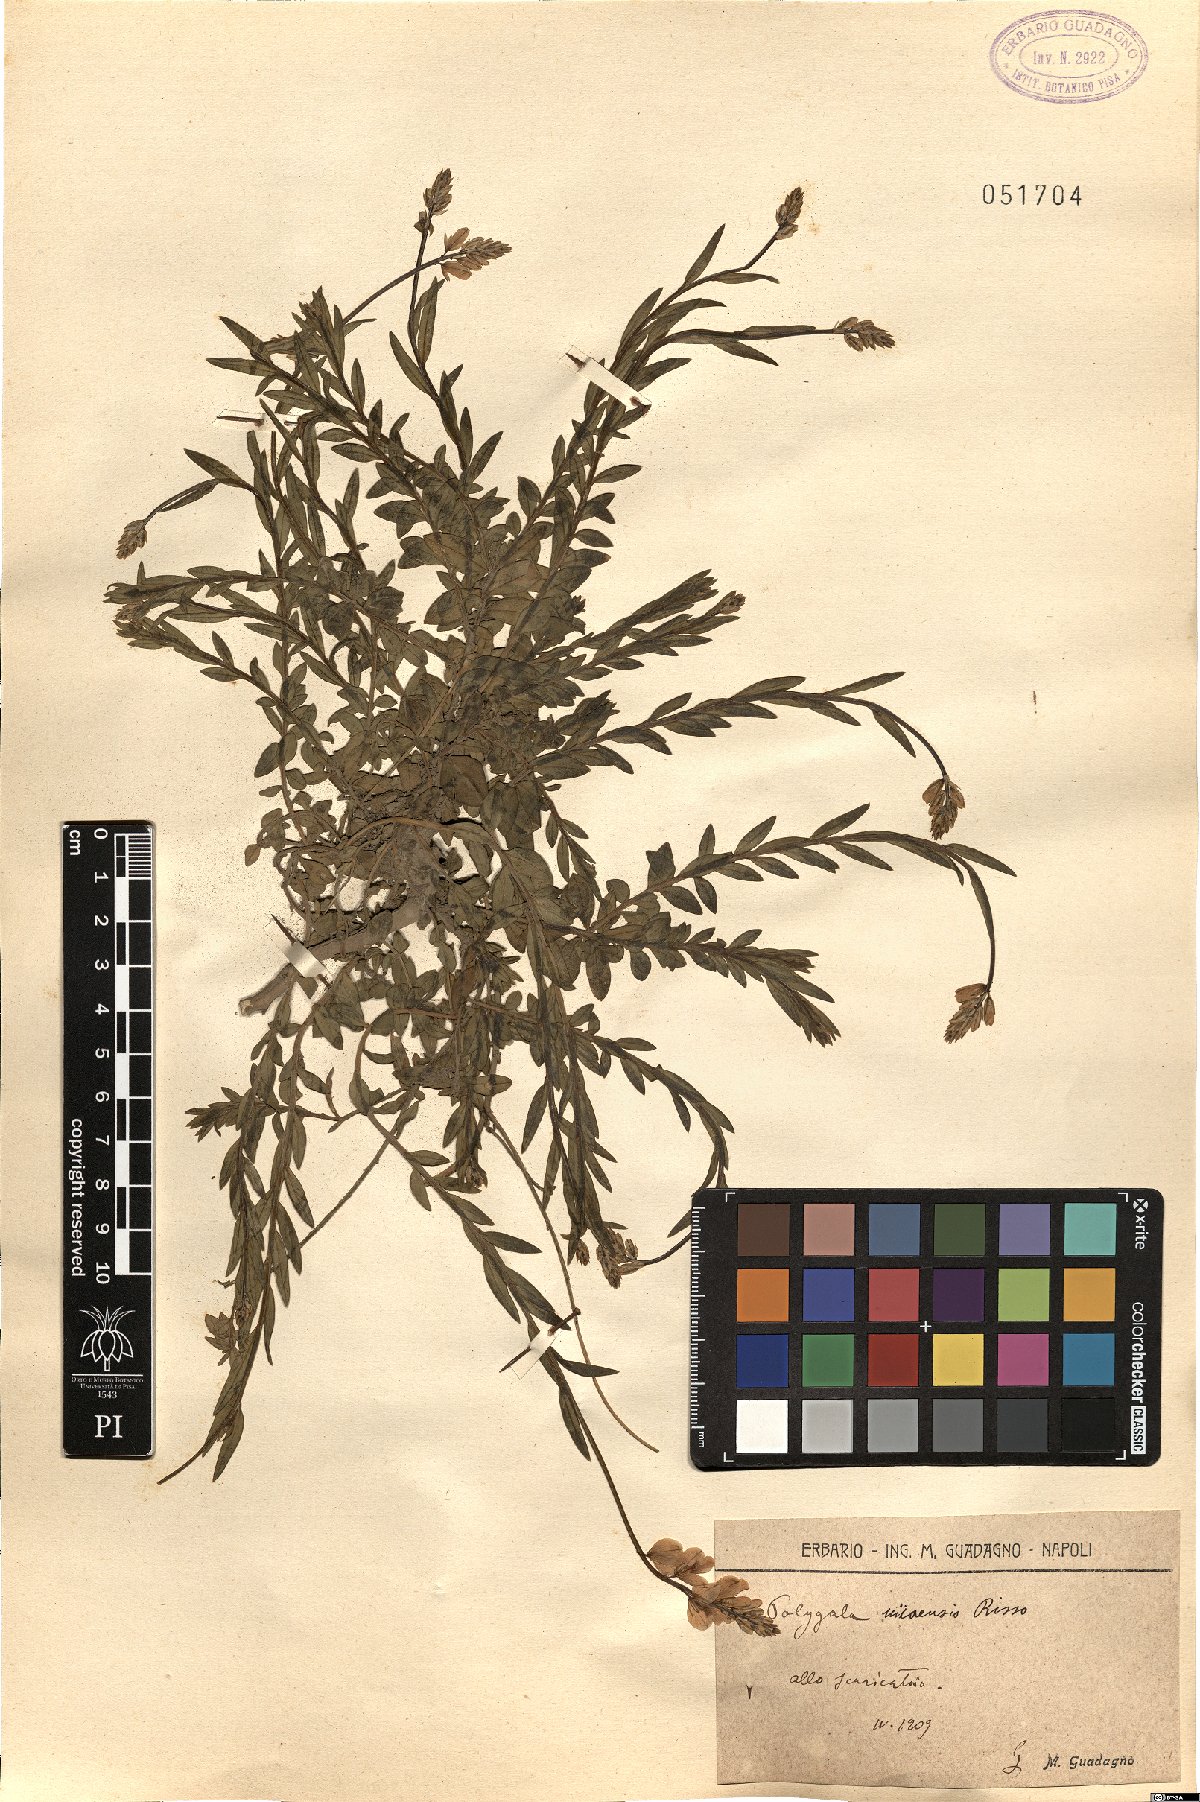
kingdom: Plantae
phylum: Tracheophyta
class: Magnoliopsida
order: Fabales
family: Polygalaceae
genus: Polygala
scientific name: Polygala nicaeensis
